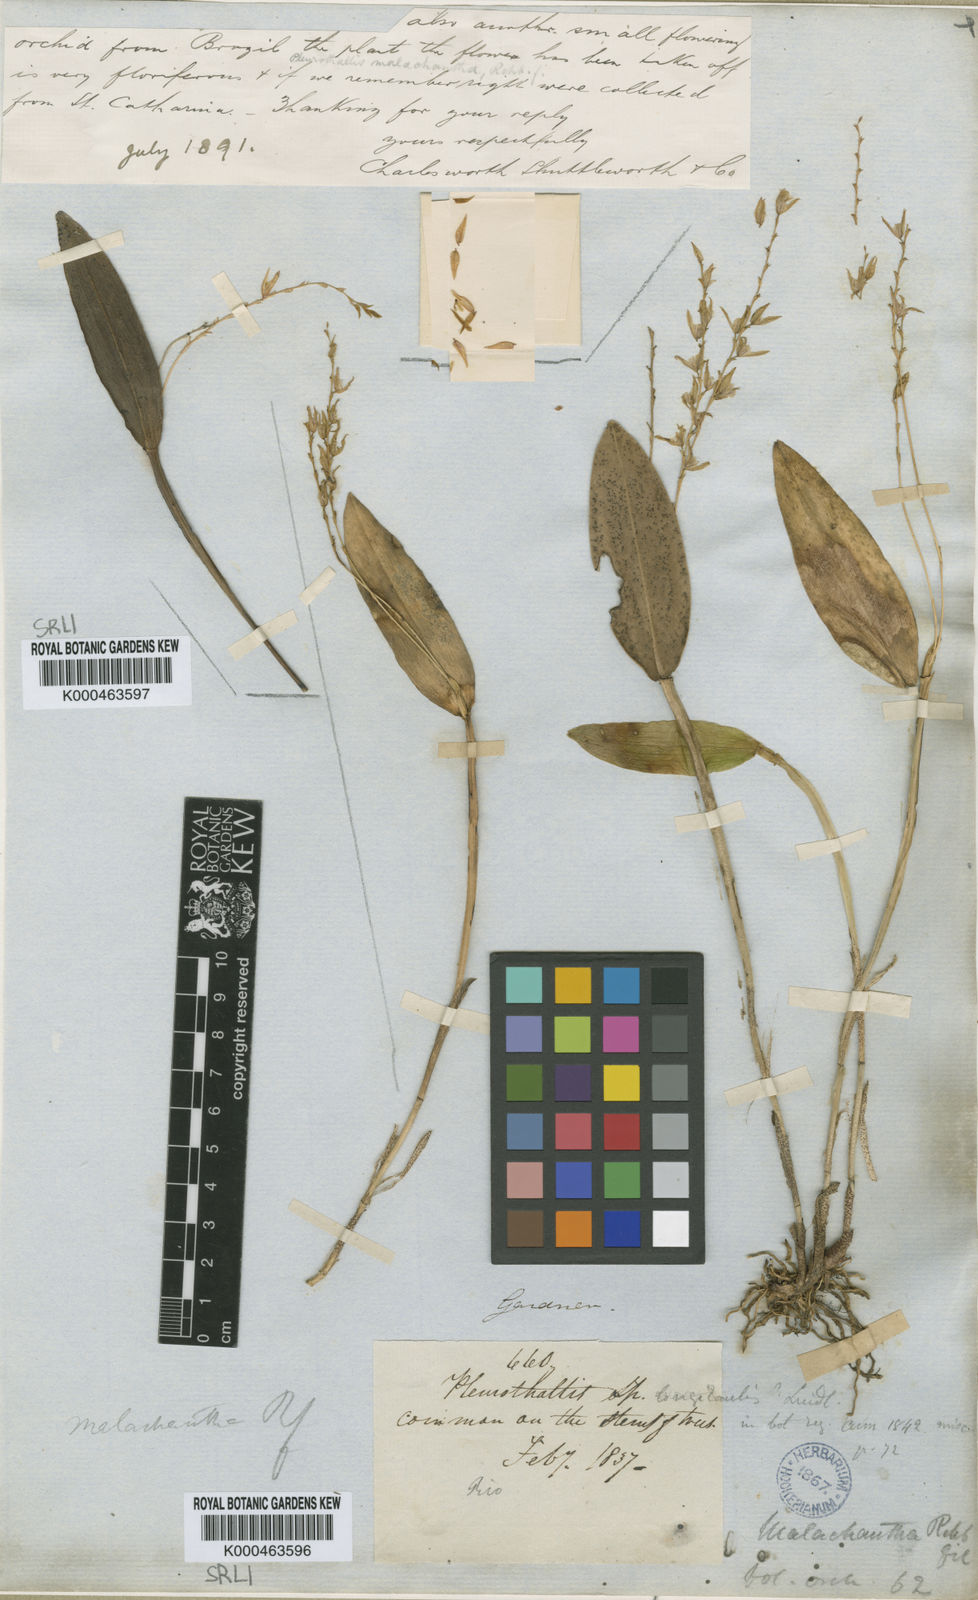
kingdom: Plantae
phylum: Tracheophyta
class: Liliopsida
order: Asparagales
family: Orchidaceae
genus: Acianthera
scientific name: Acianthera malachantha
